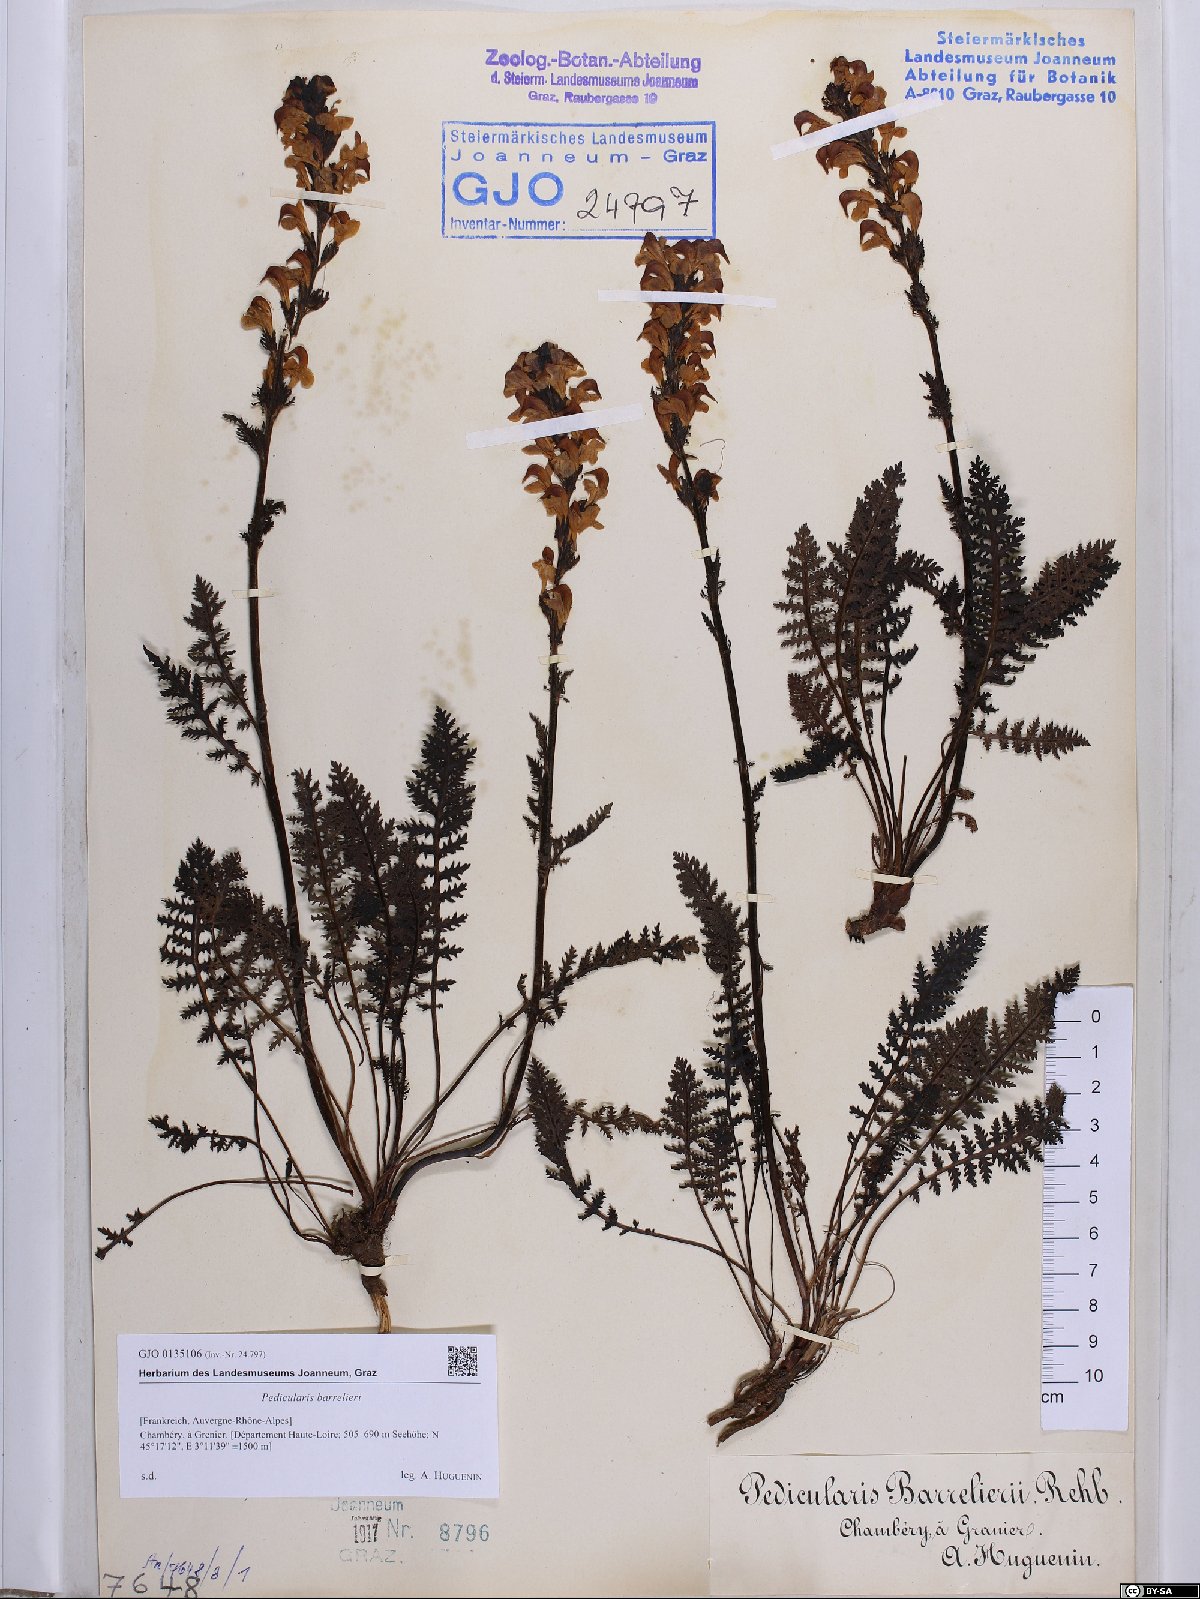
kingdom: Plantae
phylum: Tracheophyta
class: Magnoliopsida
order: Lamiales
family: Orobanchaceae
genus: Pedicularis
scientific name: Pedicularis ascendens
